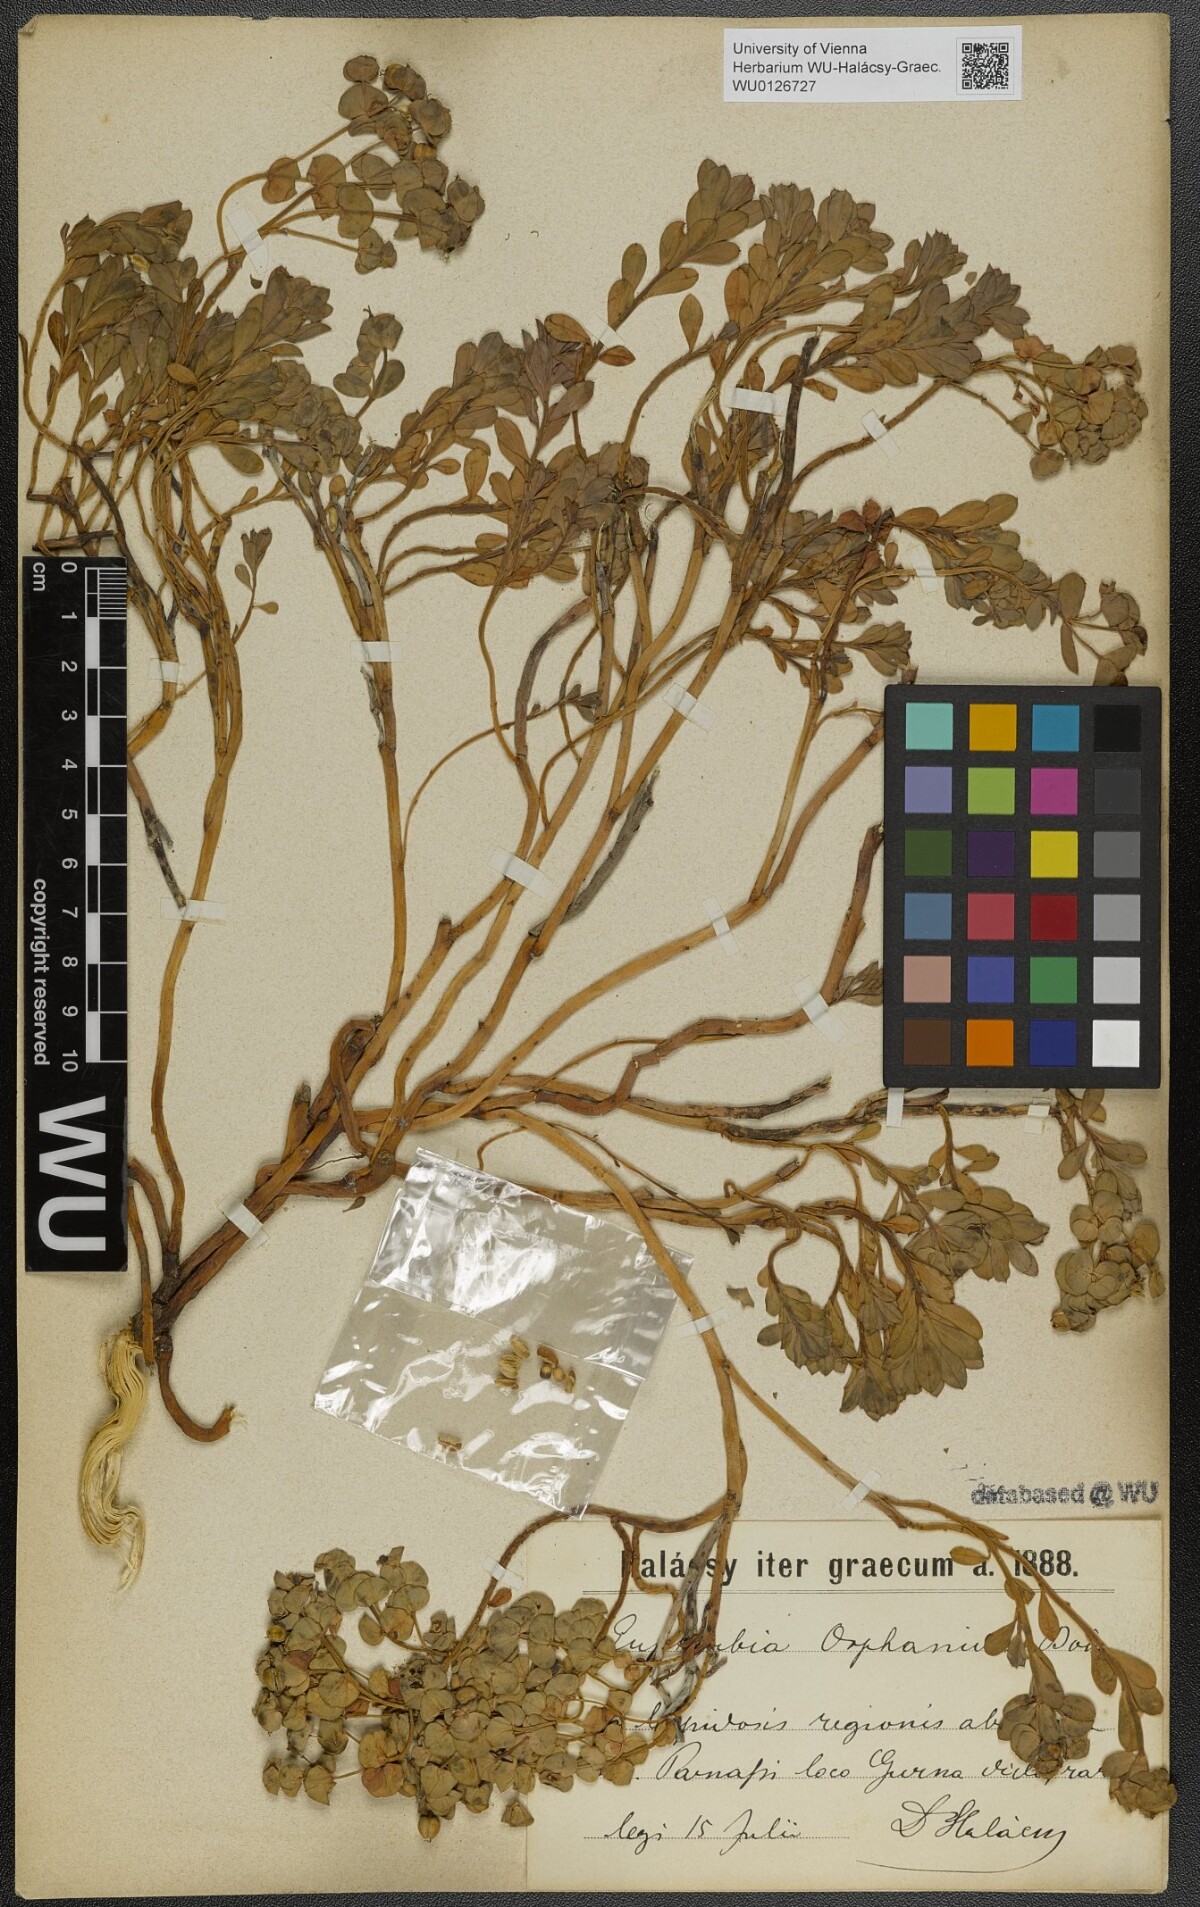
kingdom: Plantae
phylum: Tracheophyta
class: Magnoliopsida
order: Malpighiales
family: Euphorbiaceae
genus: Euphorbia
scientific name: Euphorbia orphanidis
